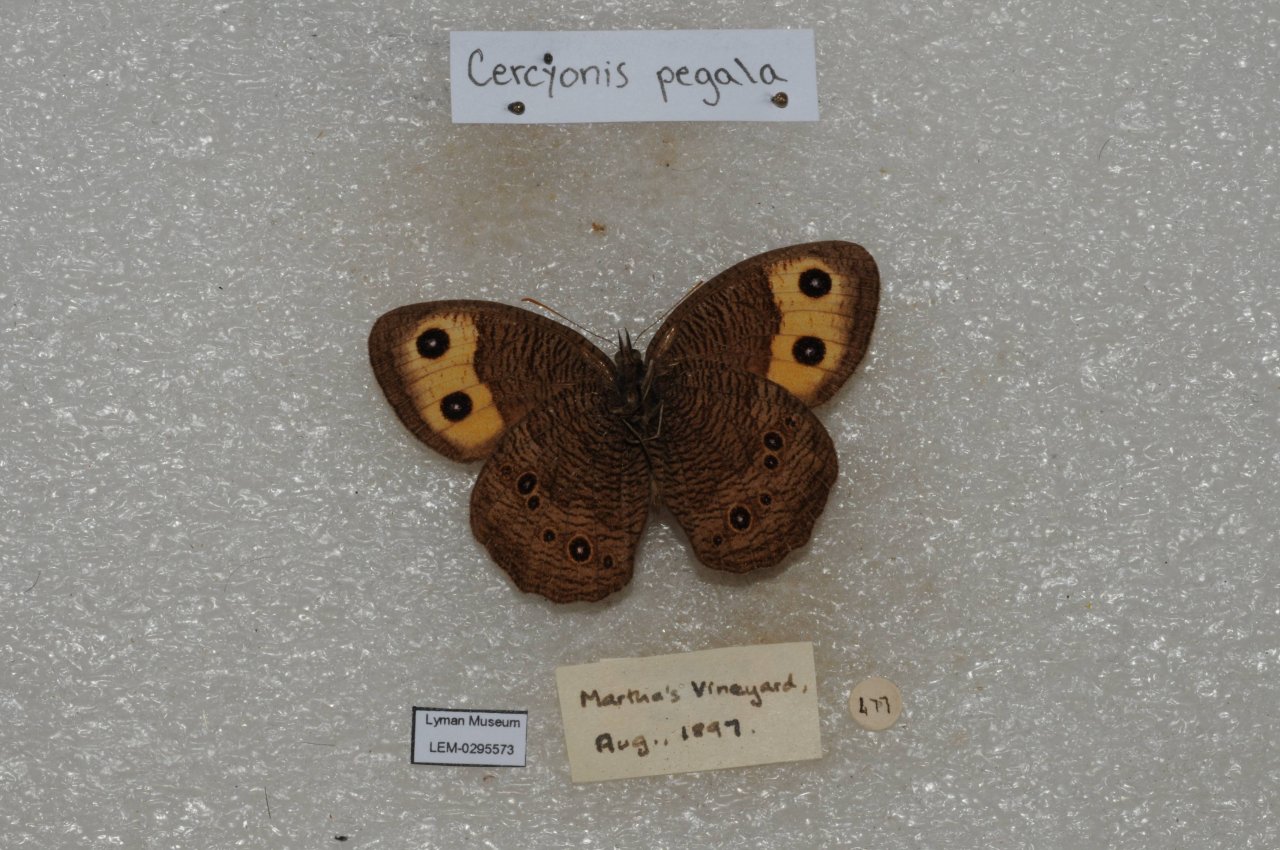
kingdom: Animalia
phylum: Arthropoda
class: Insecta
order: Lepidoptera
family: Nymphalidae
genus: Cercyonis
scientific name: Cercyonis pegala
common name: Common Wood-Nymph
